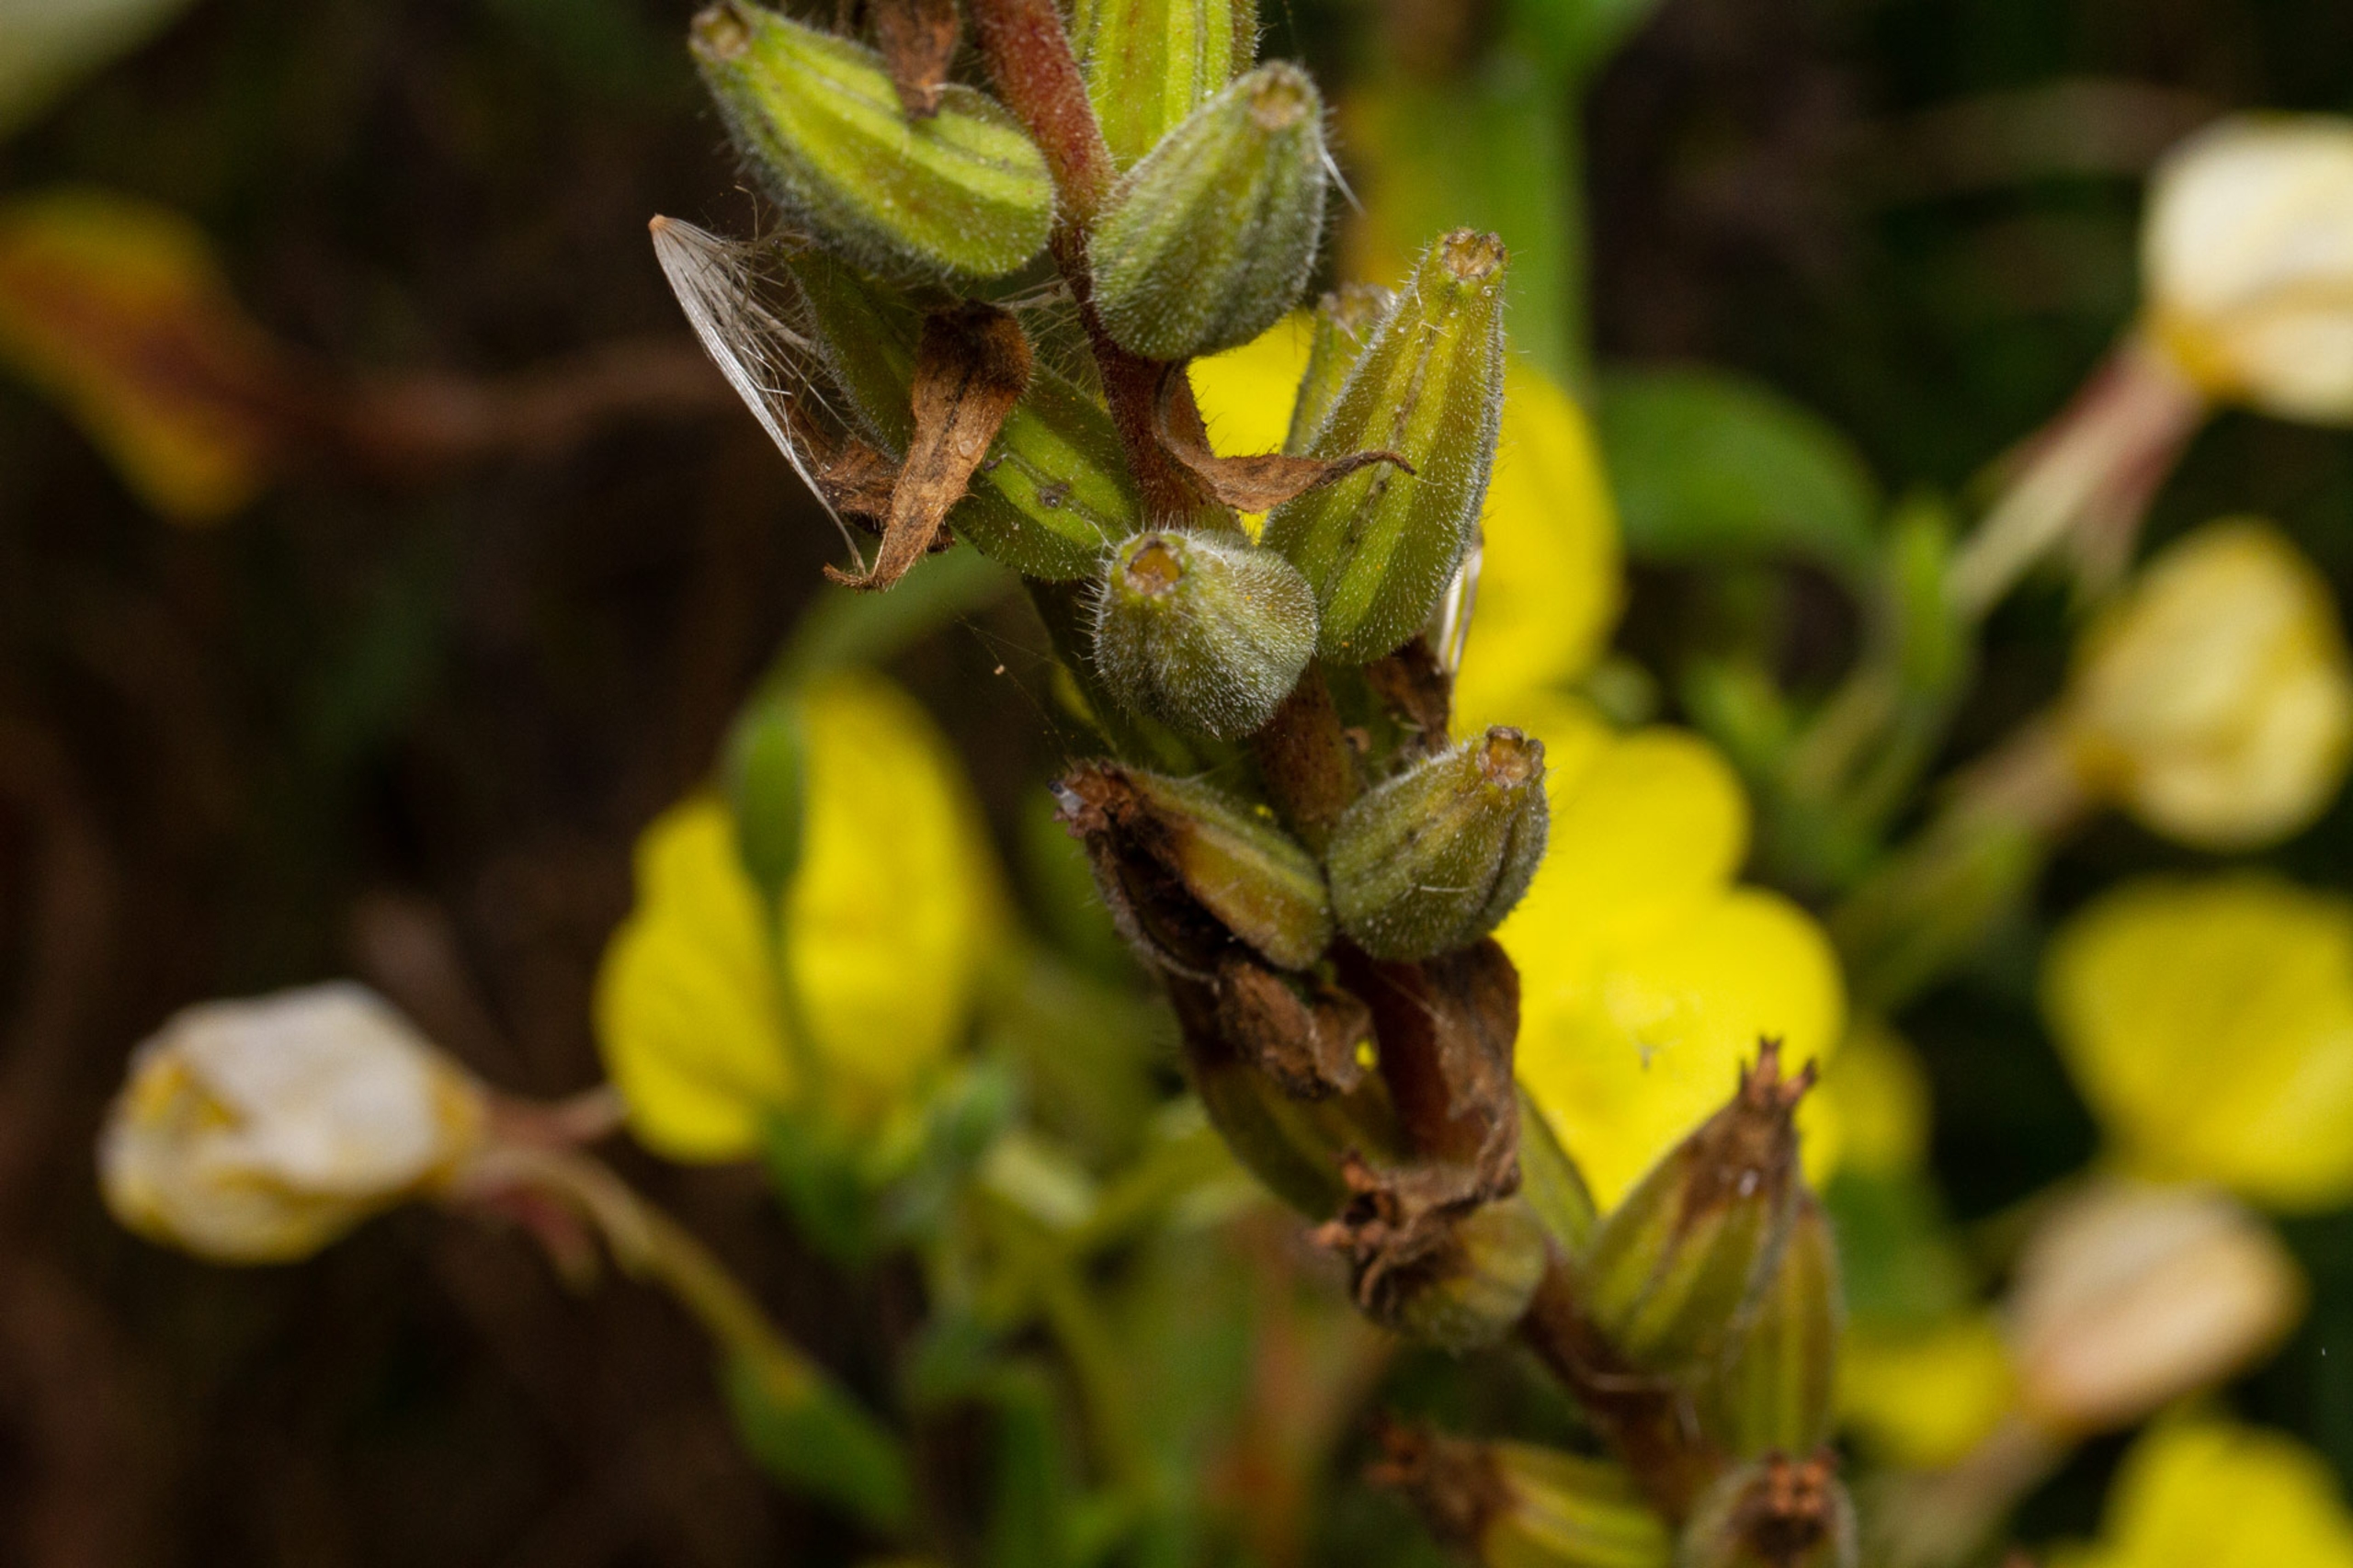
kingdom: Plantae
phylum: Tracheophyta
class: Magnoliopsida
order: Myrtales
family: Onagraceae
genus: Oenothera
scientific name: Oenothera biennis
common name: Rødfrugtet natlys
